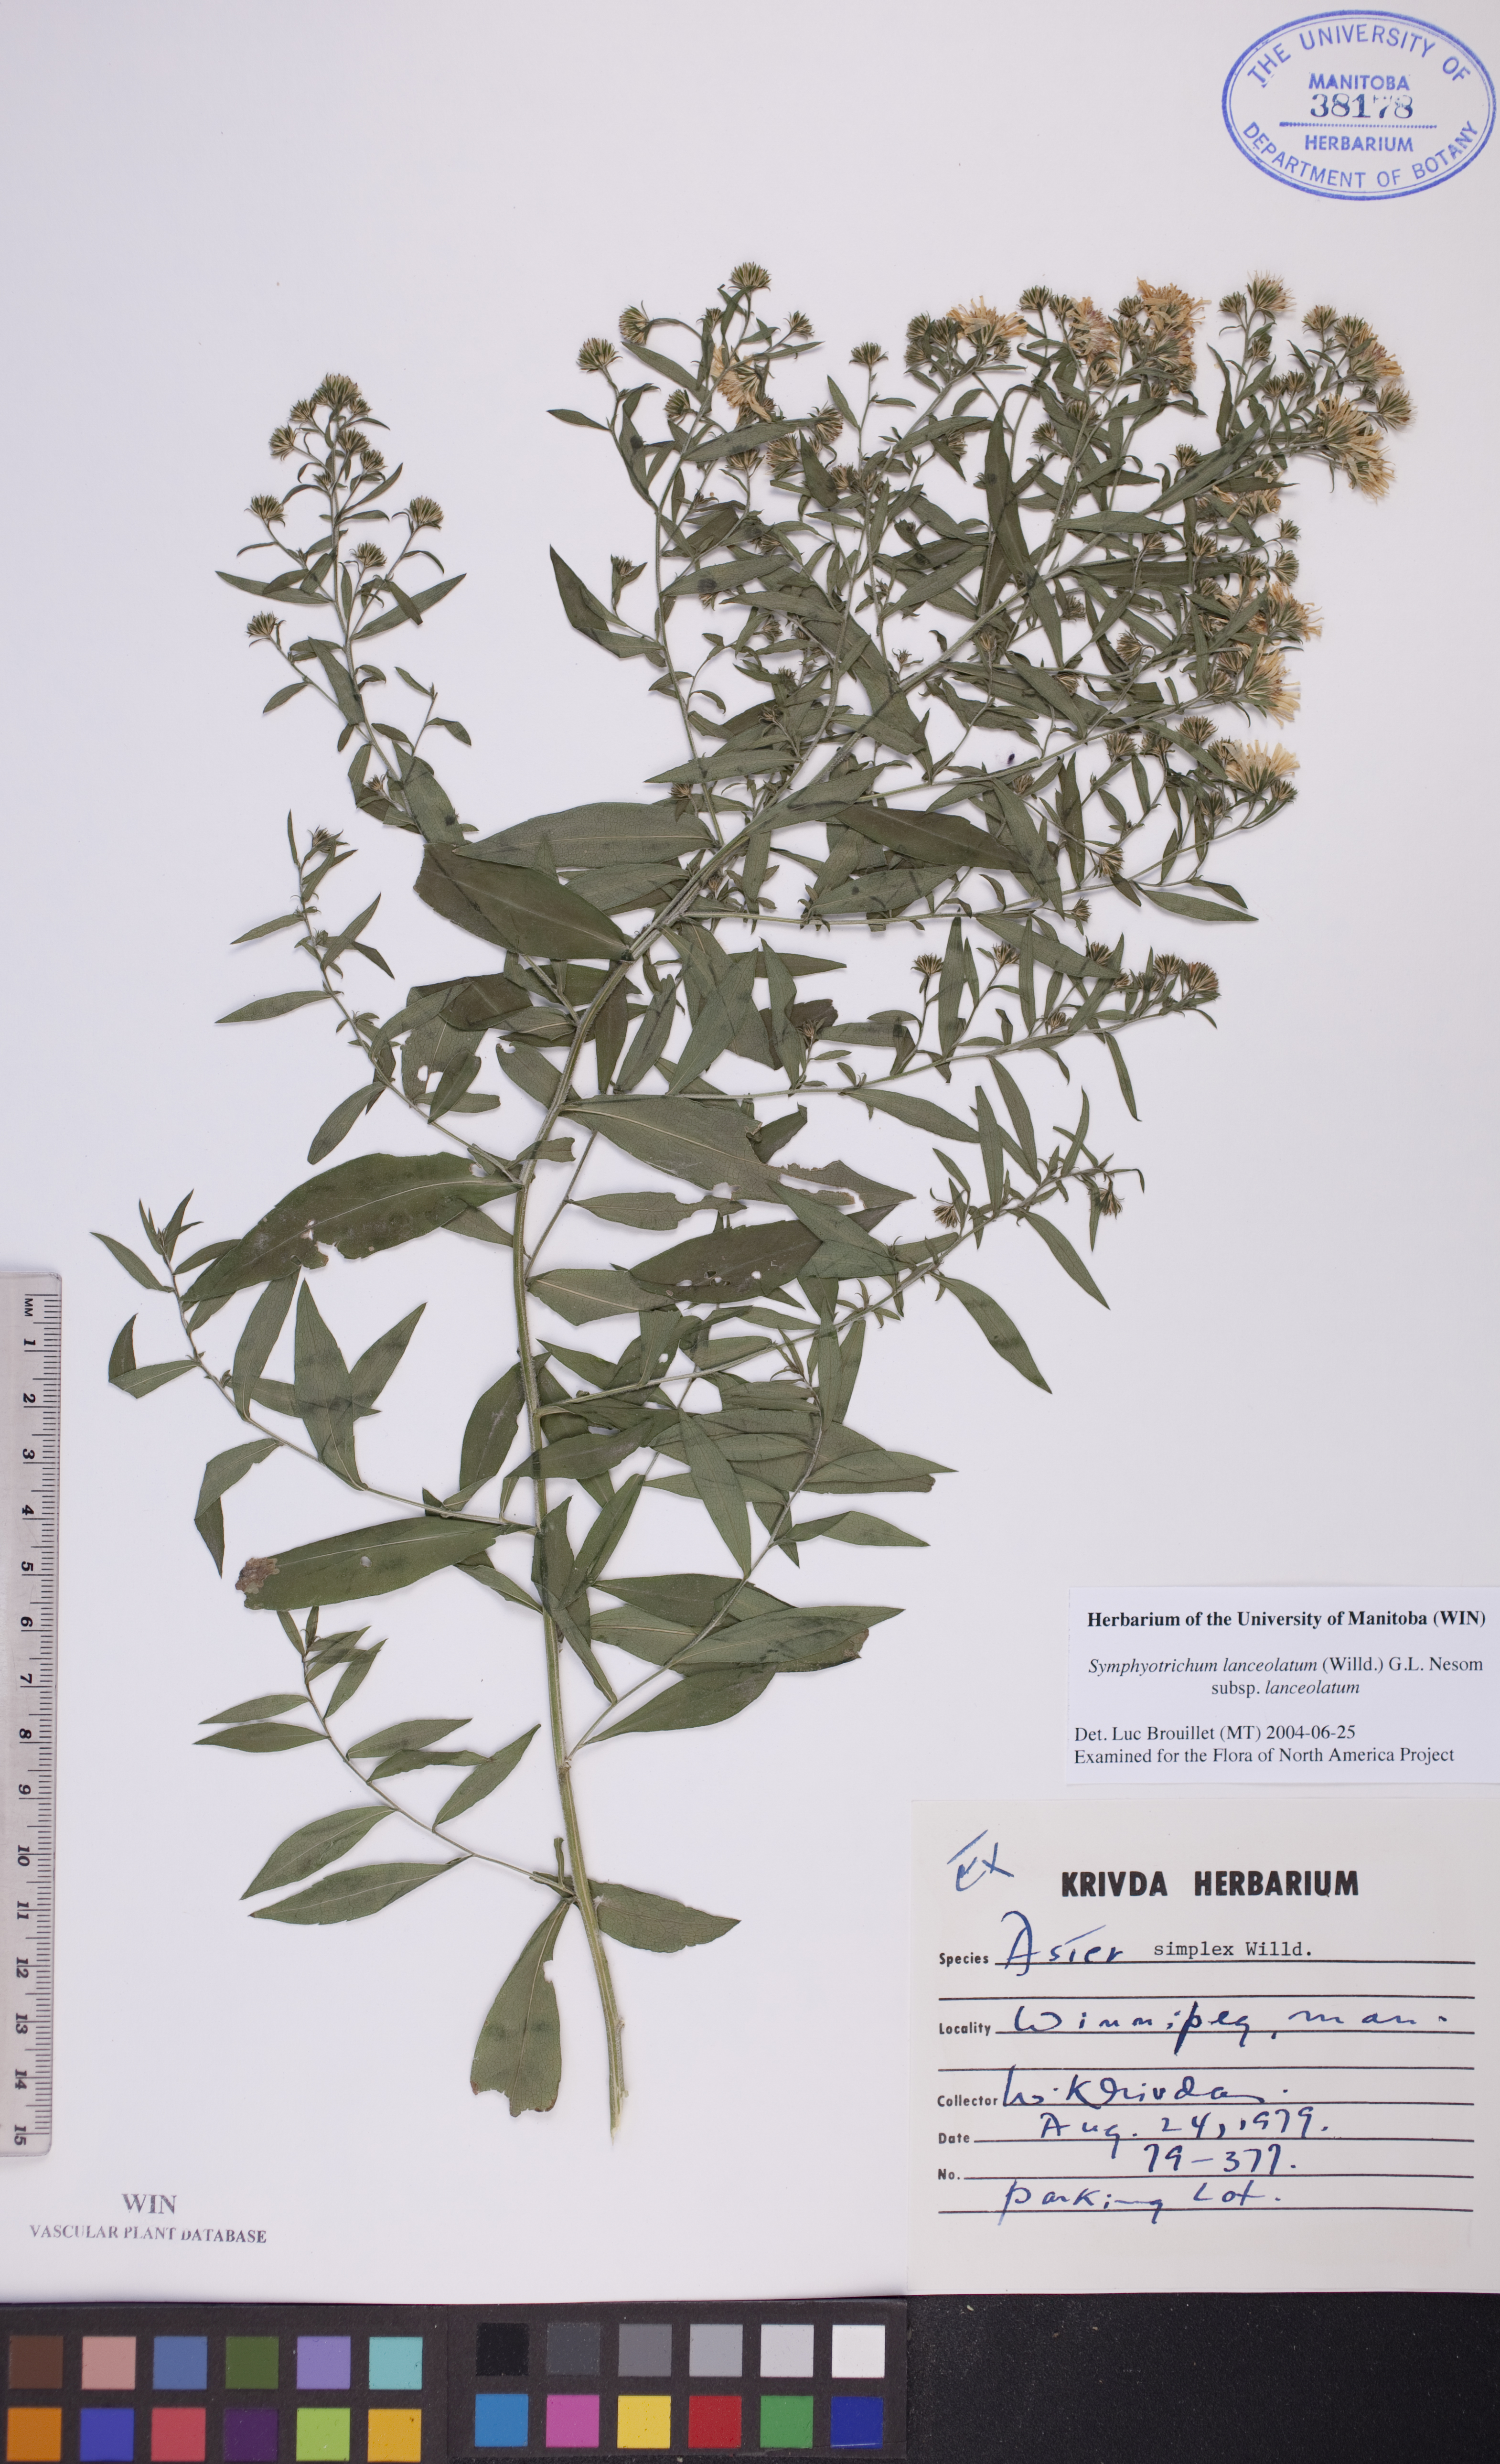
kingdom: Plantae
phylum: Tracheophyta
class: Magnoliopsida
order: Asterales
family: Asteraceae
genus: Symphyotrichum
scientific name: Symphyotrichum lanceolatum
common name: Panicled aster
